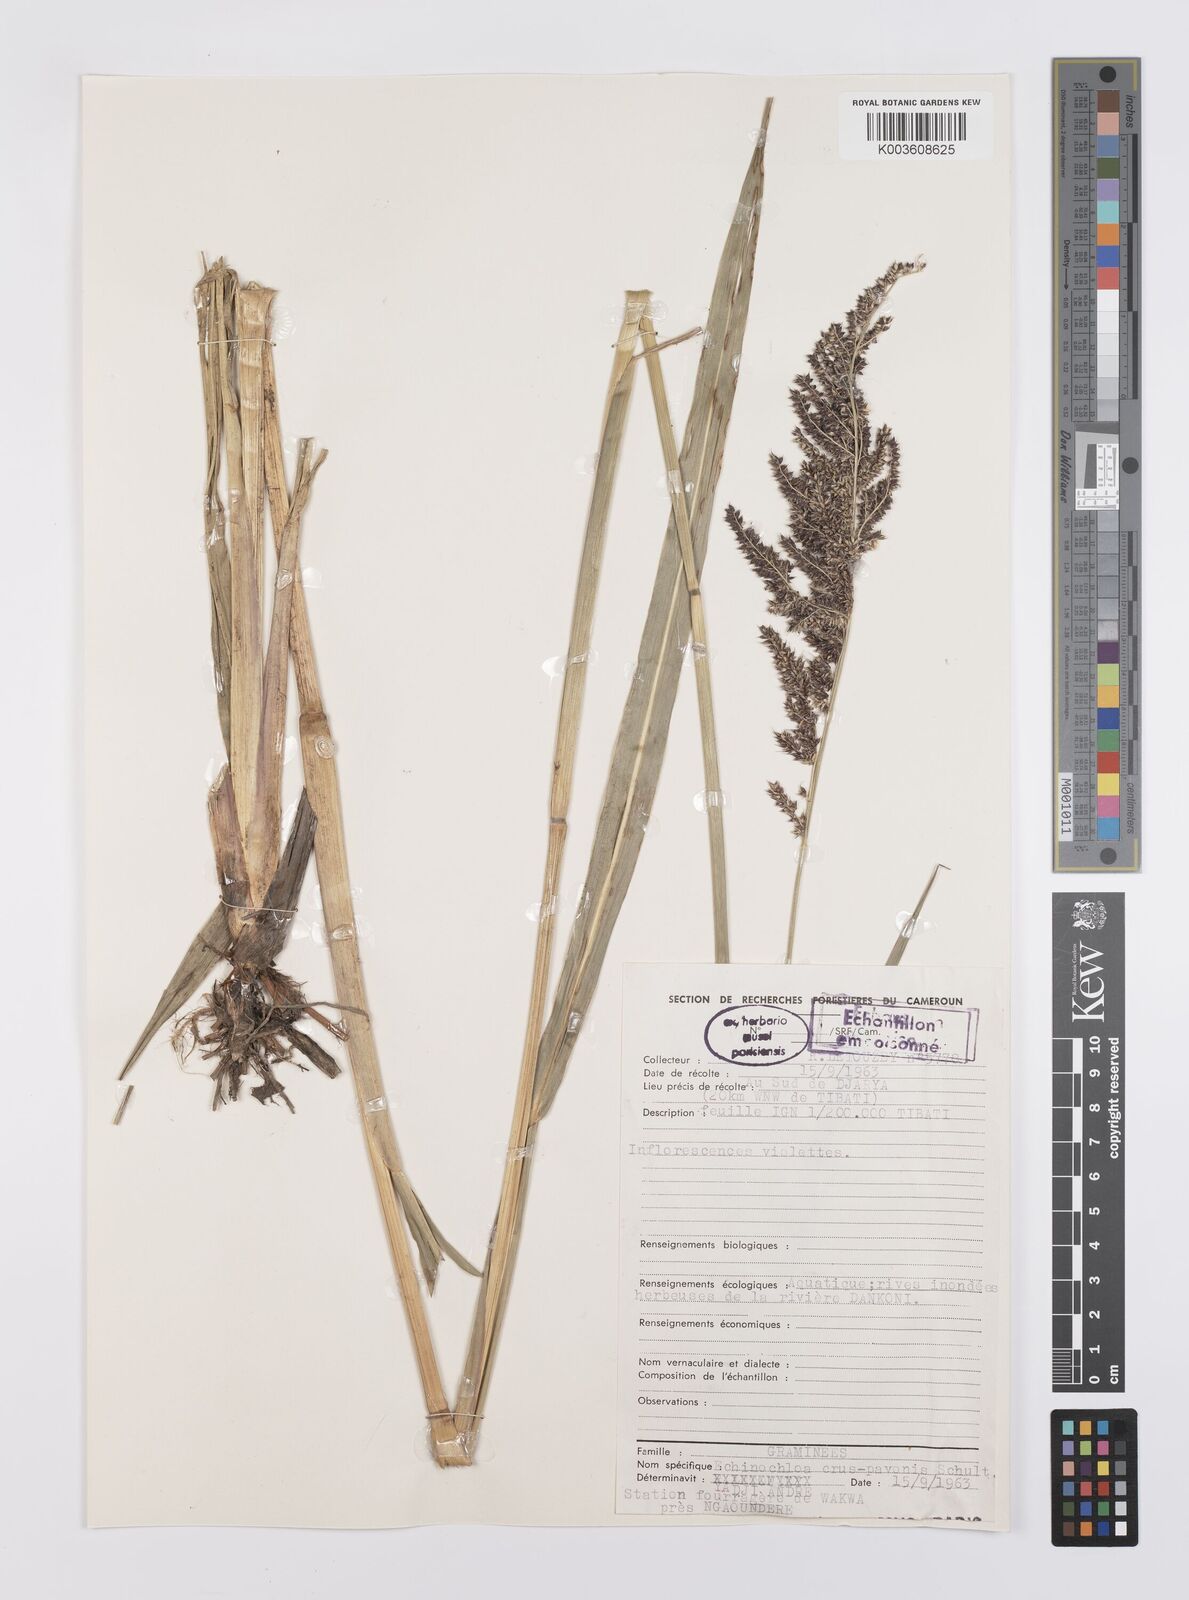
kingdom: Plantae
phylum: Tracheophyta
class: Liliopsida
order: Poales
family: Poaceae
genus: Echinochloa
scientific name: Echinochloa crus-pavonis
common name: Gulf cockspur grass
